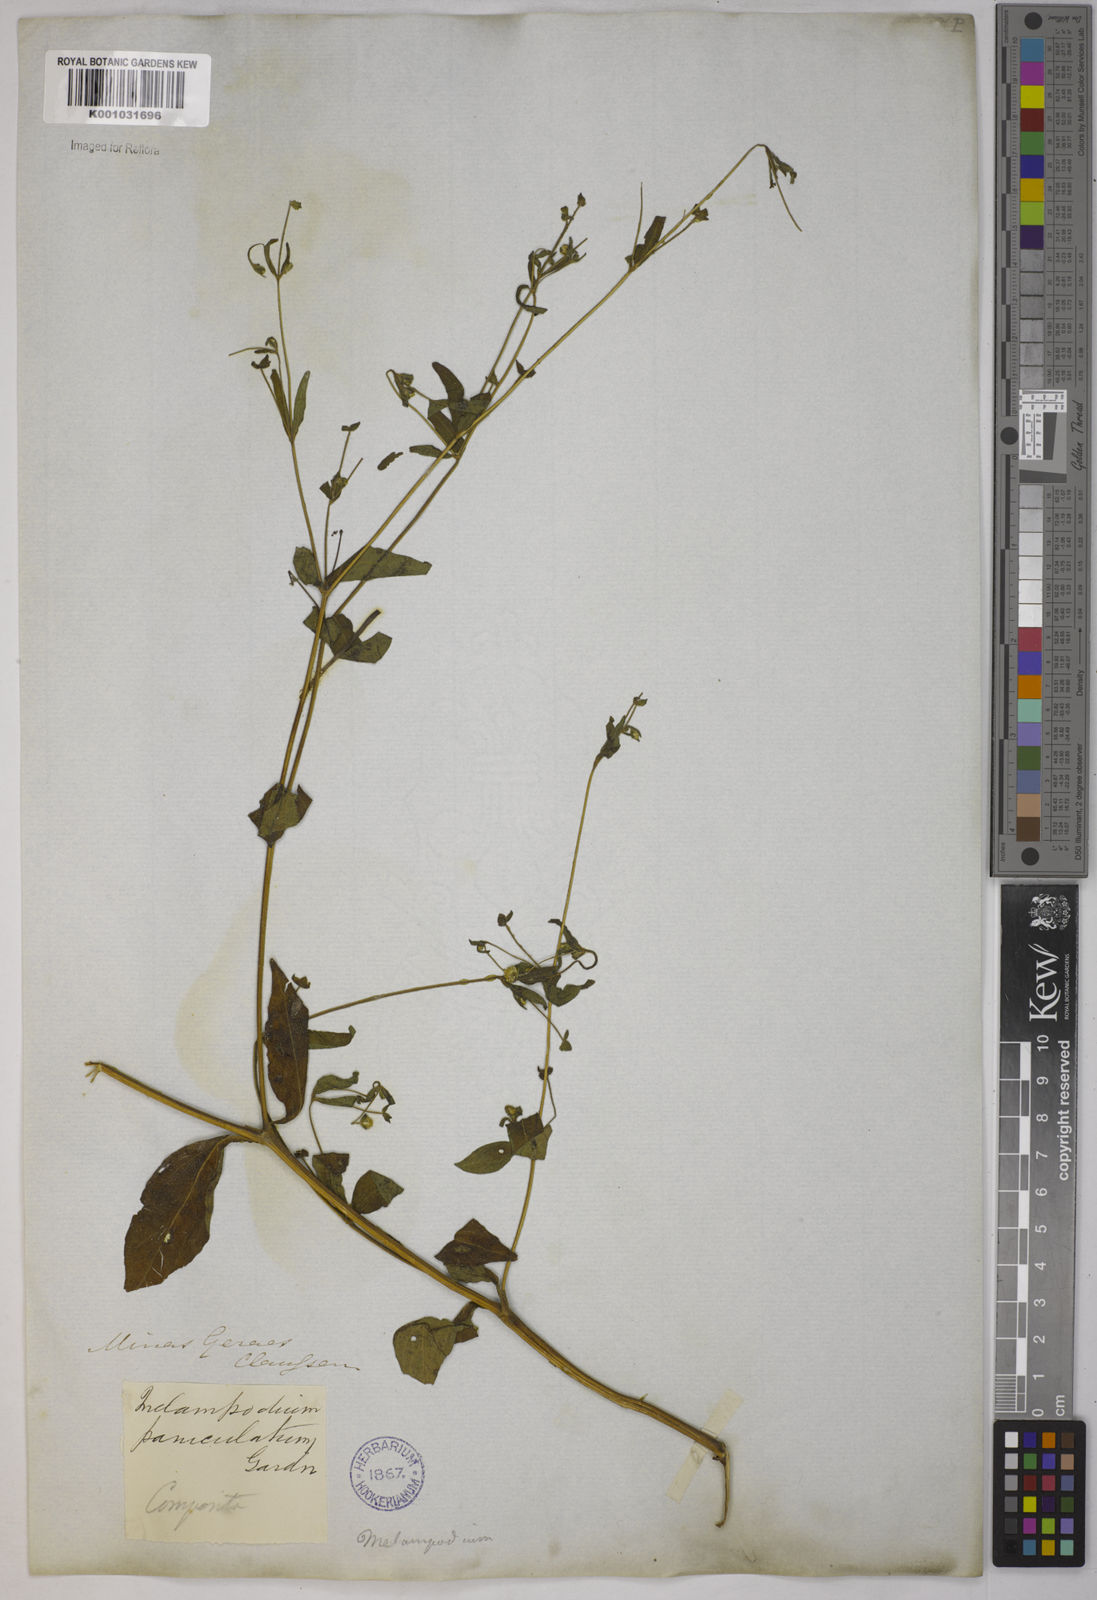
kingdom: Plantae
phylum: Tracheophyta
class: Magnoliopsida
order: Asterales
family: Asteraceae
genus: Melampodium
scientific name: Melampodium paniculatum
